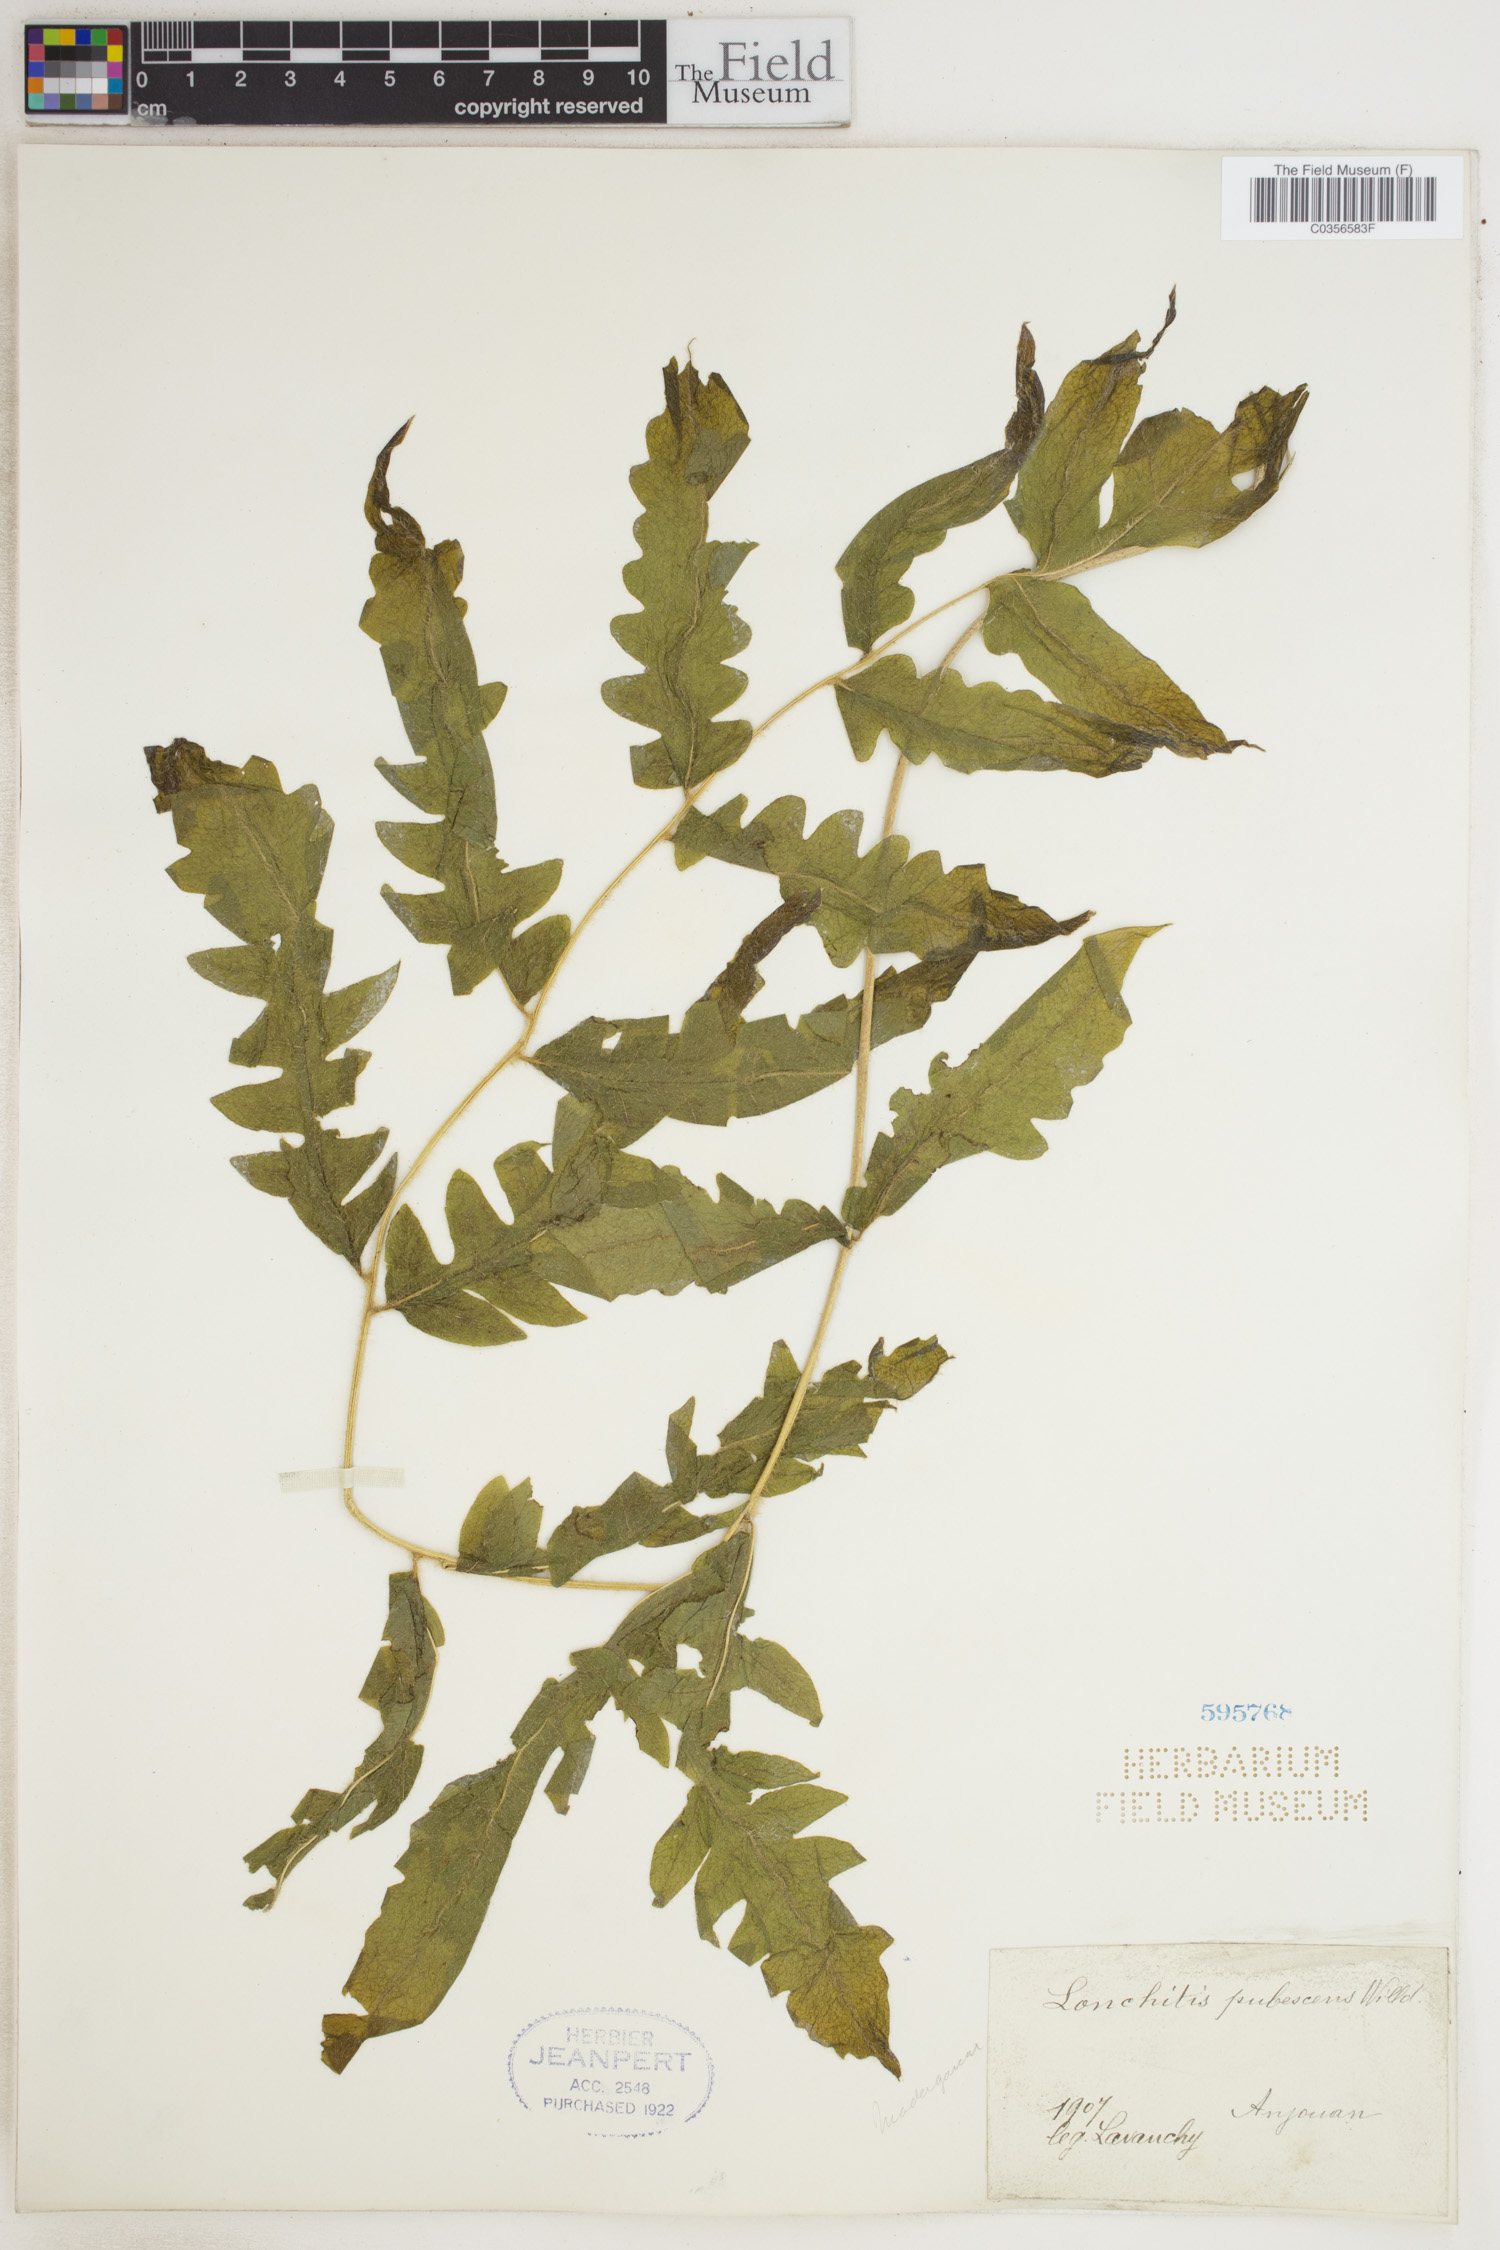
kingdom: Plantae
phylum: Tracheophyta
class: Polypodiopsida
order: Polypodiales
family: Dennstaedtiaceae
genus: Blotiella
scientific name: Blotiella natalensis
